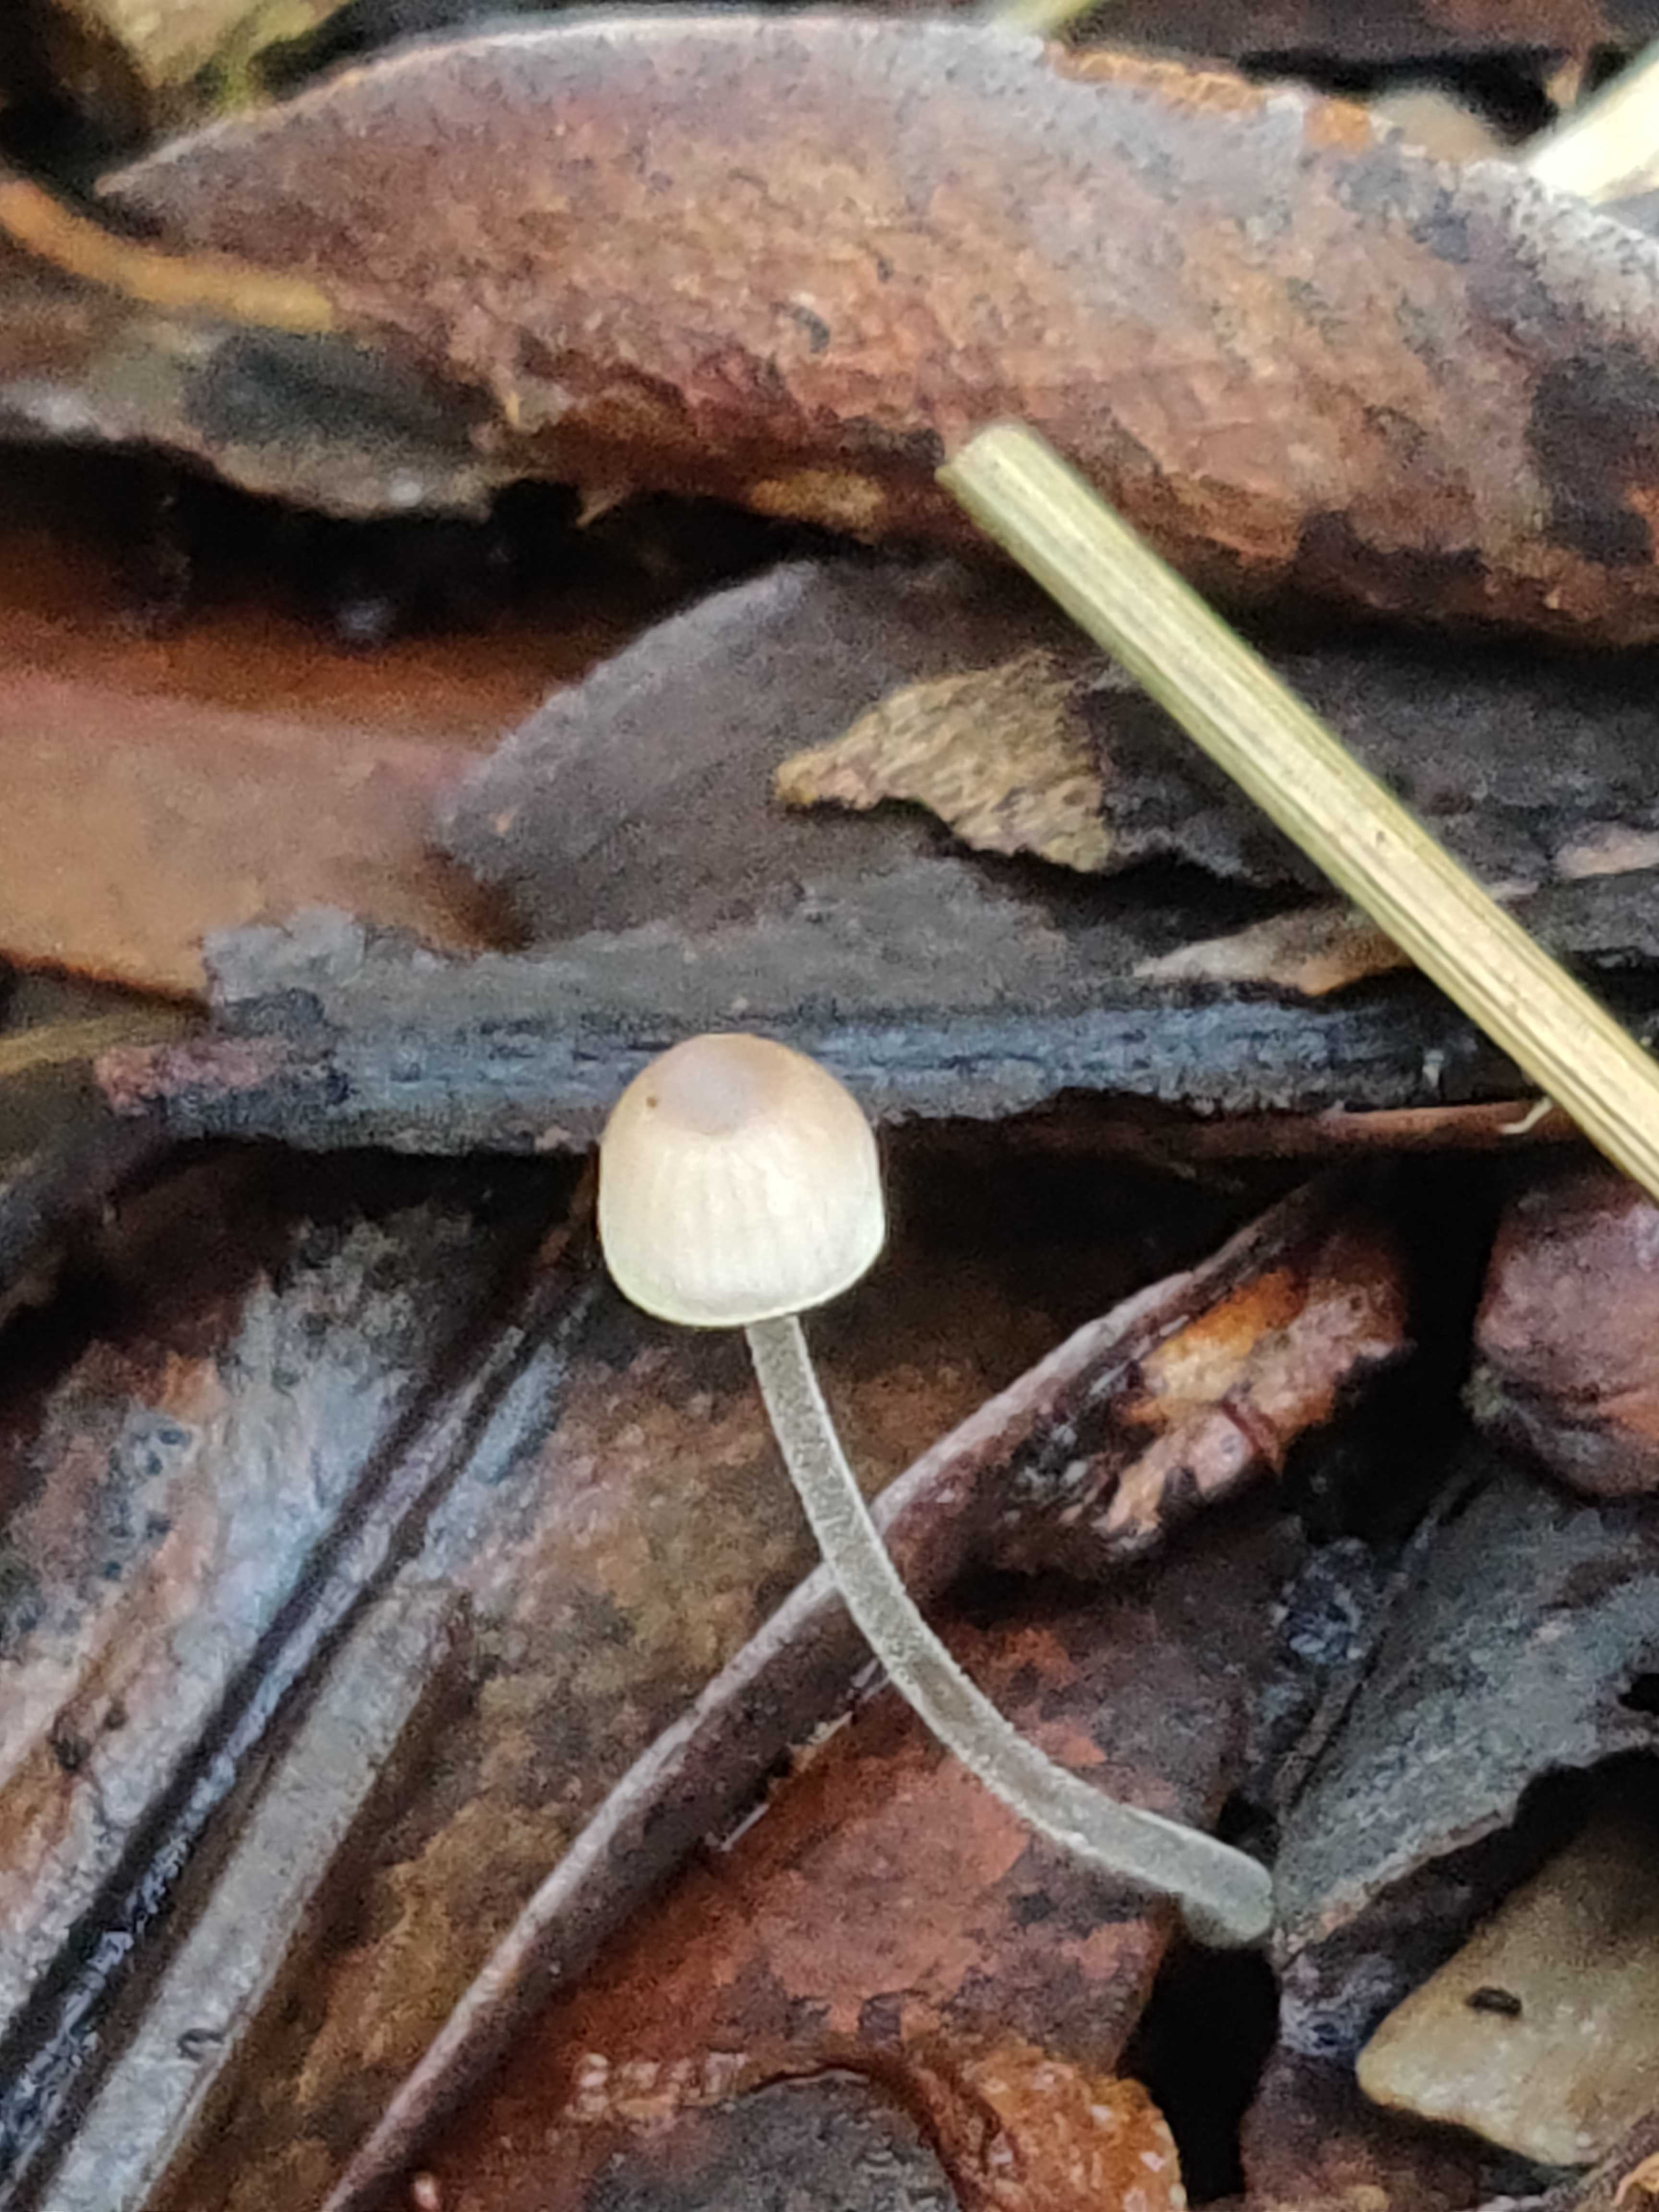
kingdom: Fungi
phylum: Basidiomycota
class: Agaricomycetes
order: Agaricales
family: Mycenaceae
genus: Mycena
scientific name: Mycena
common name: huesvamp
